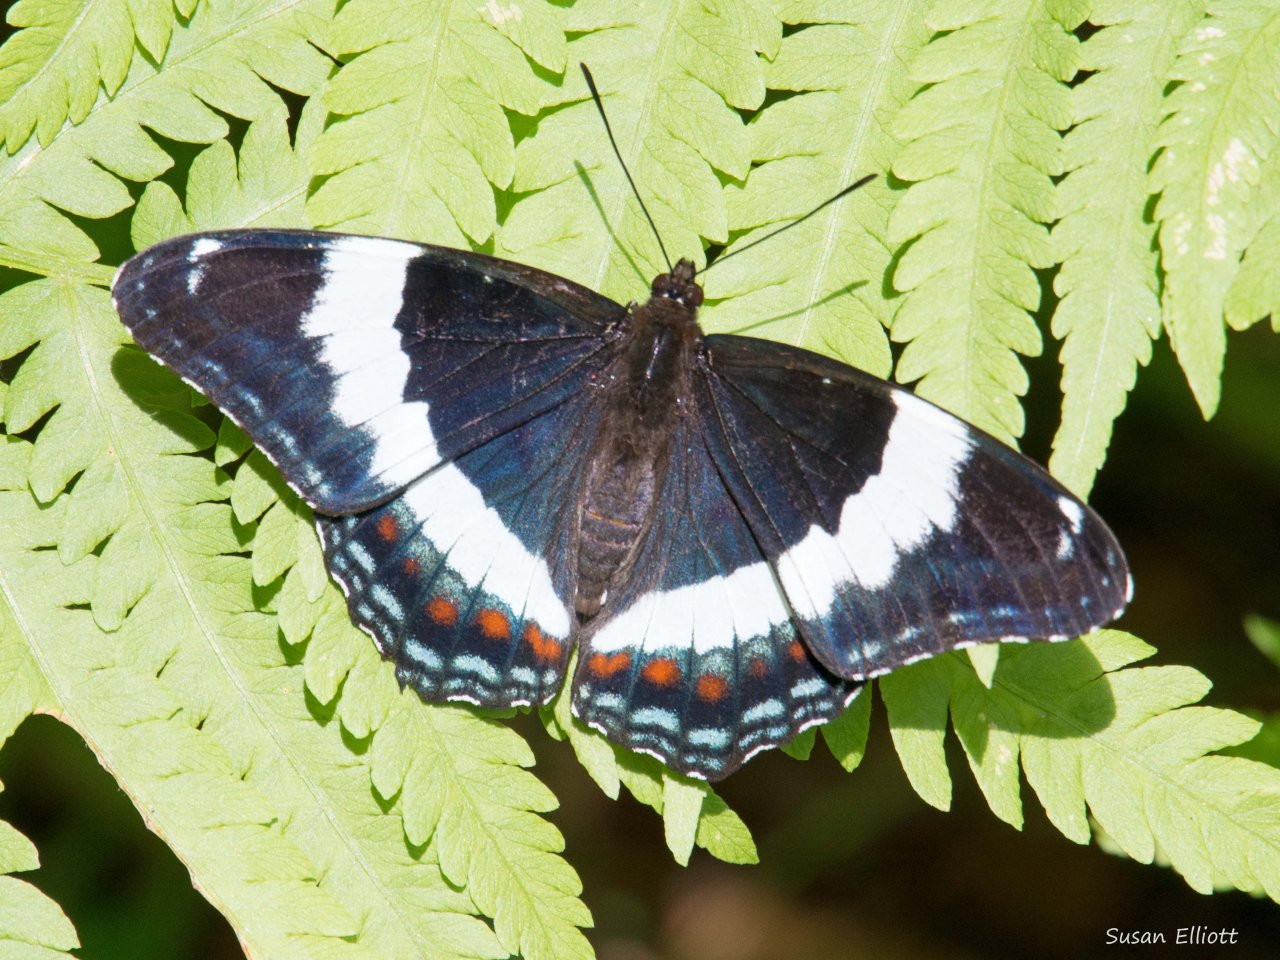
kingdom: Animalia
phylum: Arthropoda
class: Insecta
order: Lepidoptera
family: Nymphalidae
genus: Limenitis
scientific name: Limenitis arthemis
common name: Red-spotted Admiral
